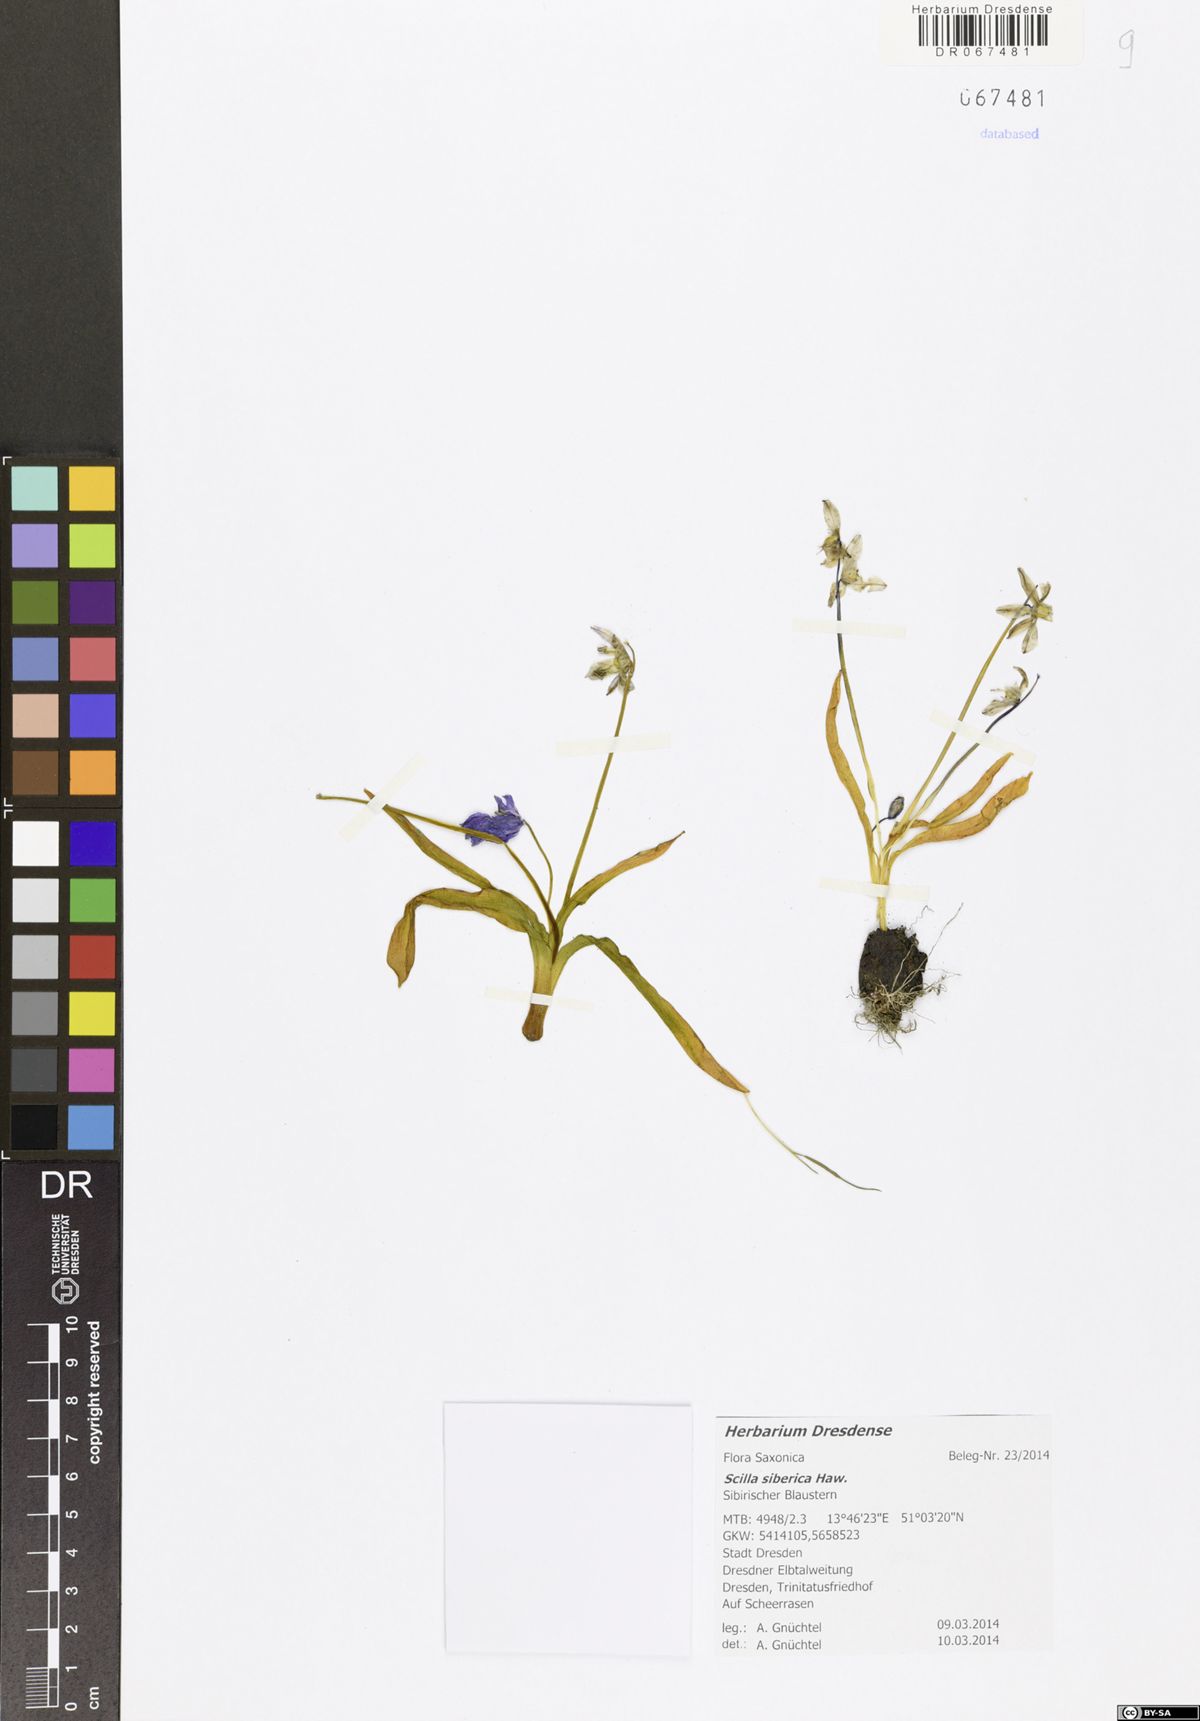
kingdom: Plantae
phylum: Tracheophyta
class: Liliopsida
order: Asparagales
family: Asparagaceae
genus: Scilla
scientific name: Scilla siberica
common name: Siberian squill
